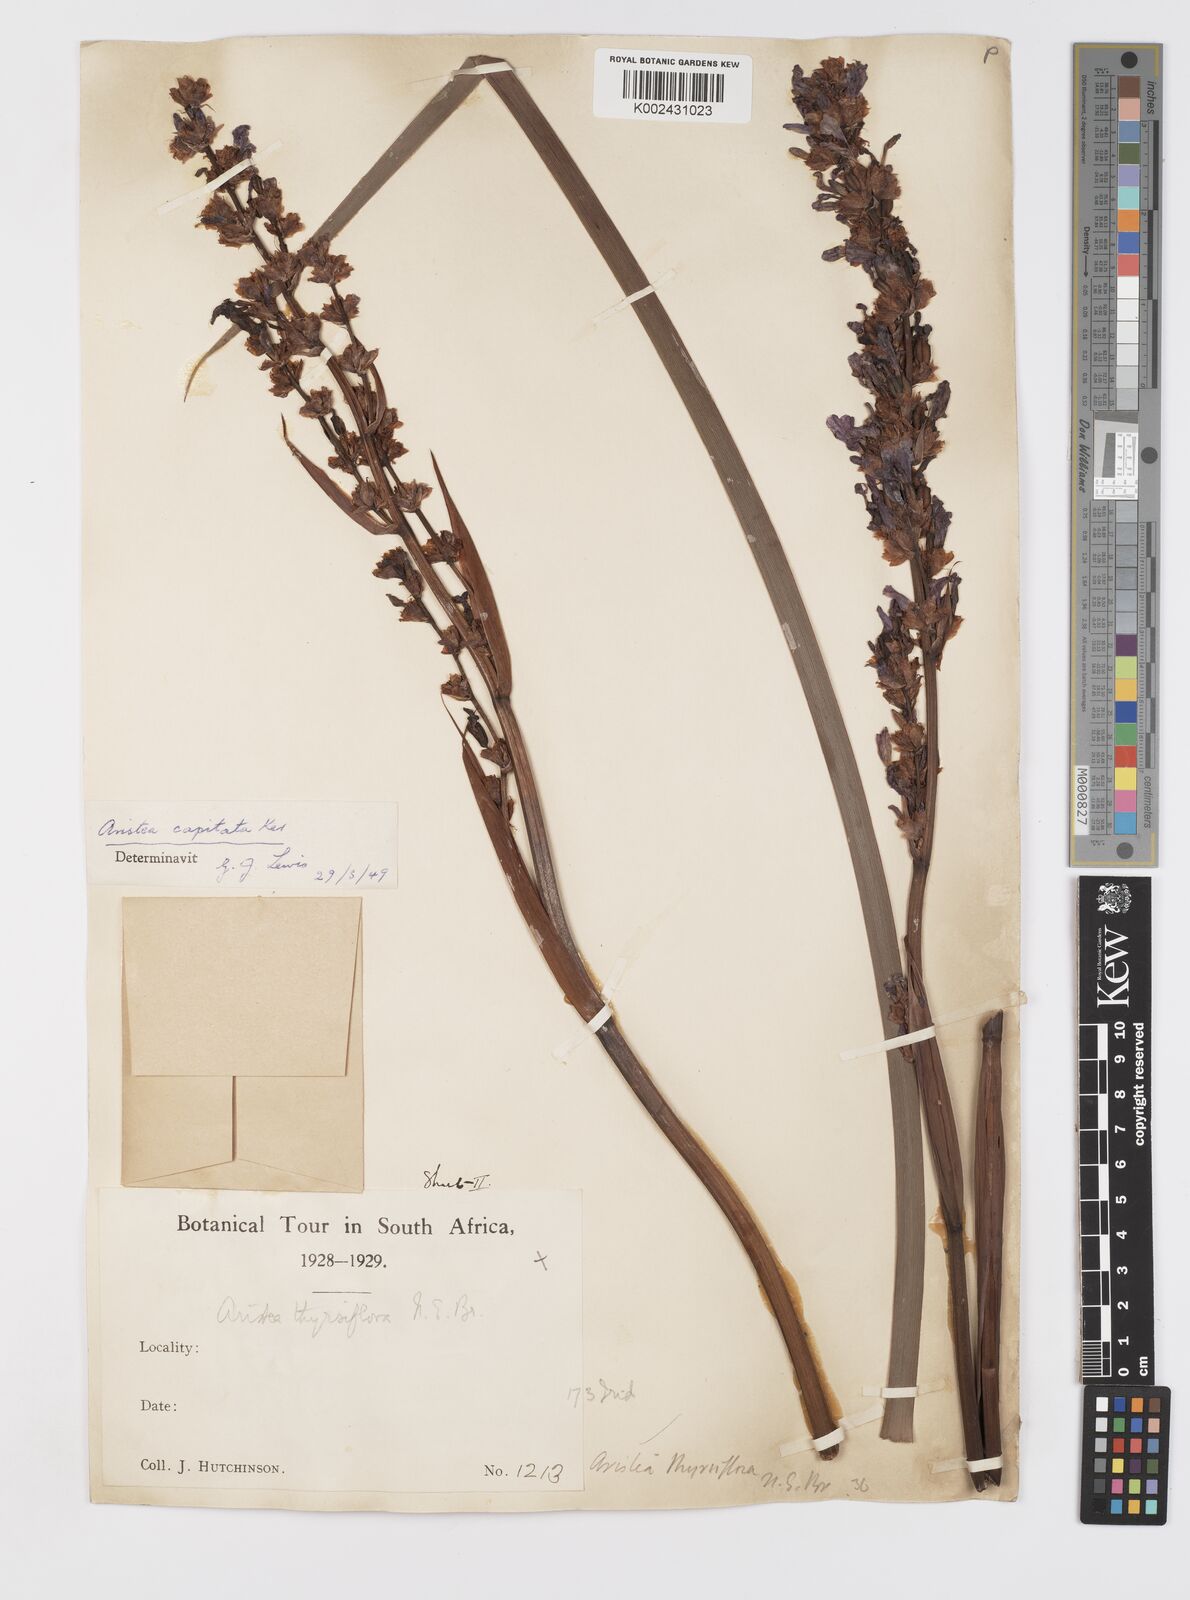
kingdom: Plantae
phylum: Tracheophyta
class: Liliopsida
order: Asparagales
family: Iridaceae
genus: Aristea
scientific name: Aristea capitata
